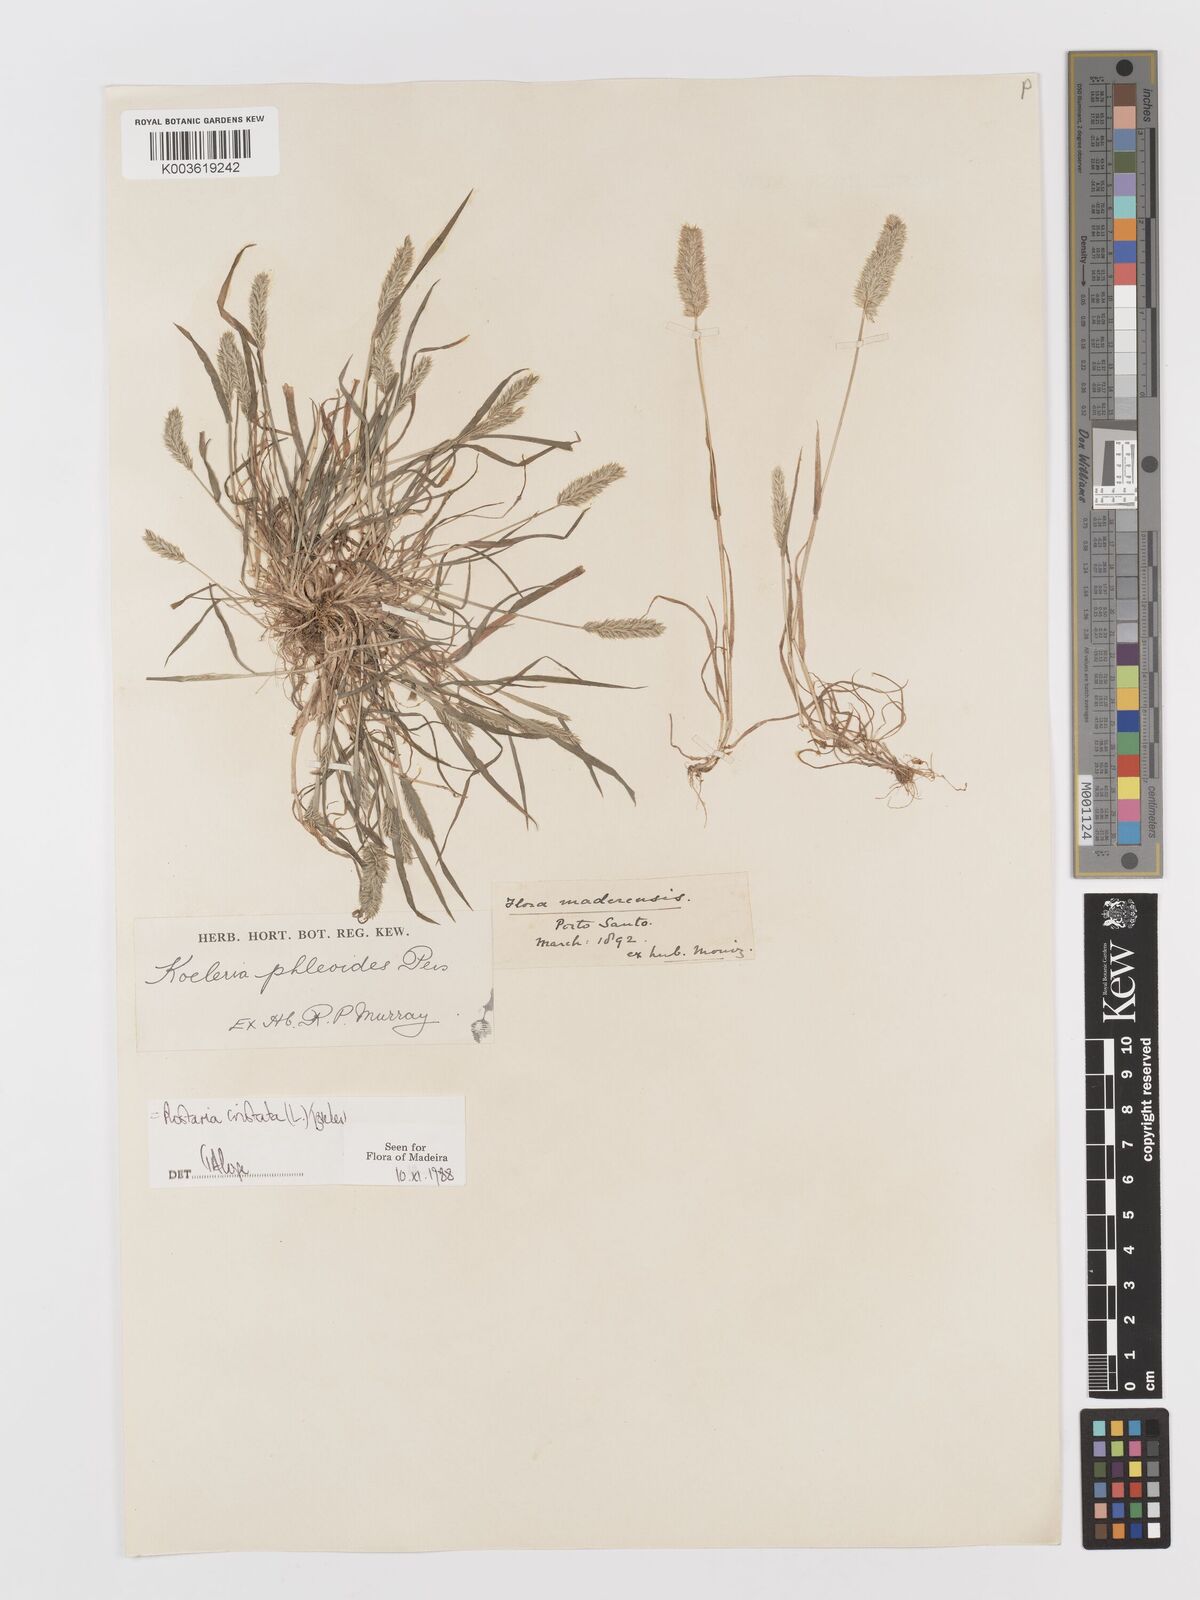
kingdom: Plantae
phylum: Tracheophyta
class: Liliopsida
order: Poales
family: Poaceae
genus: Rostraria
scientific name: Rostraria cristata
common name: Mediterranean hair-grass
